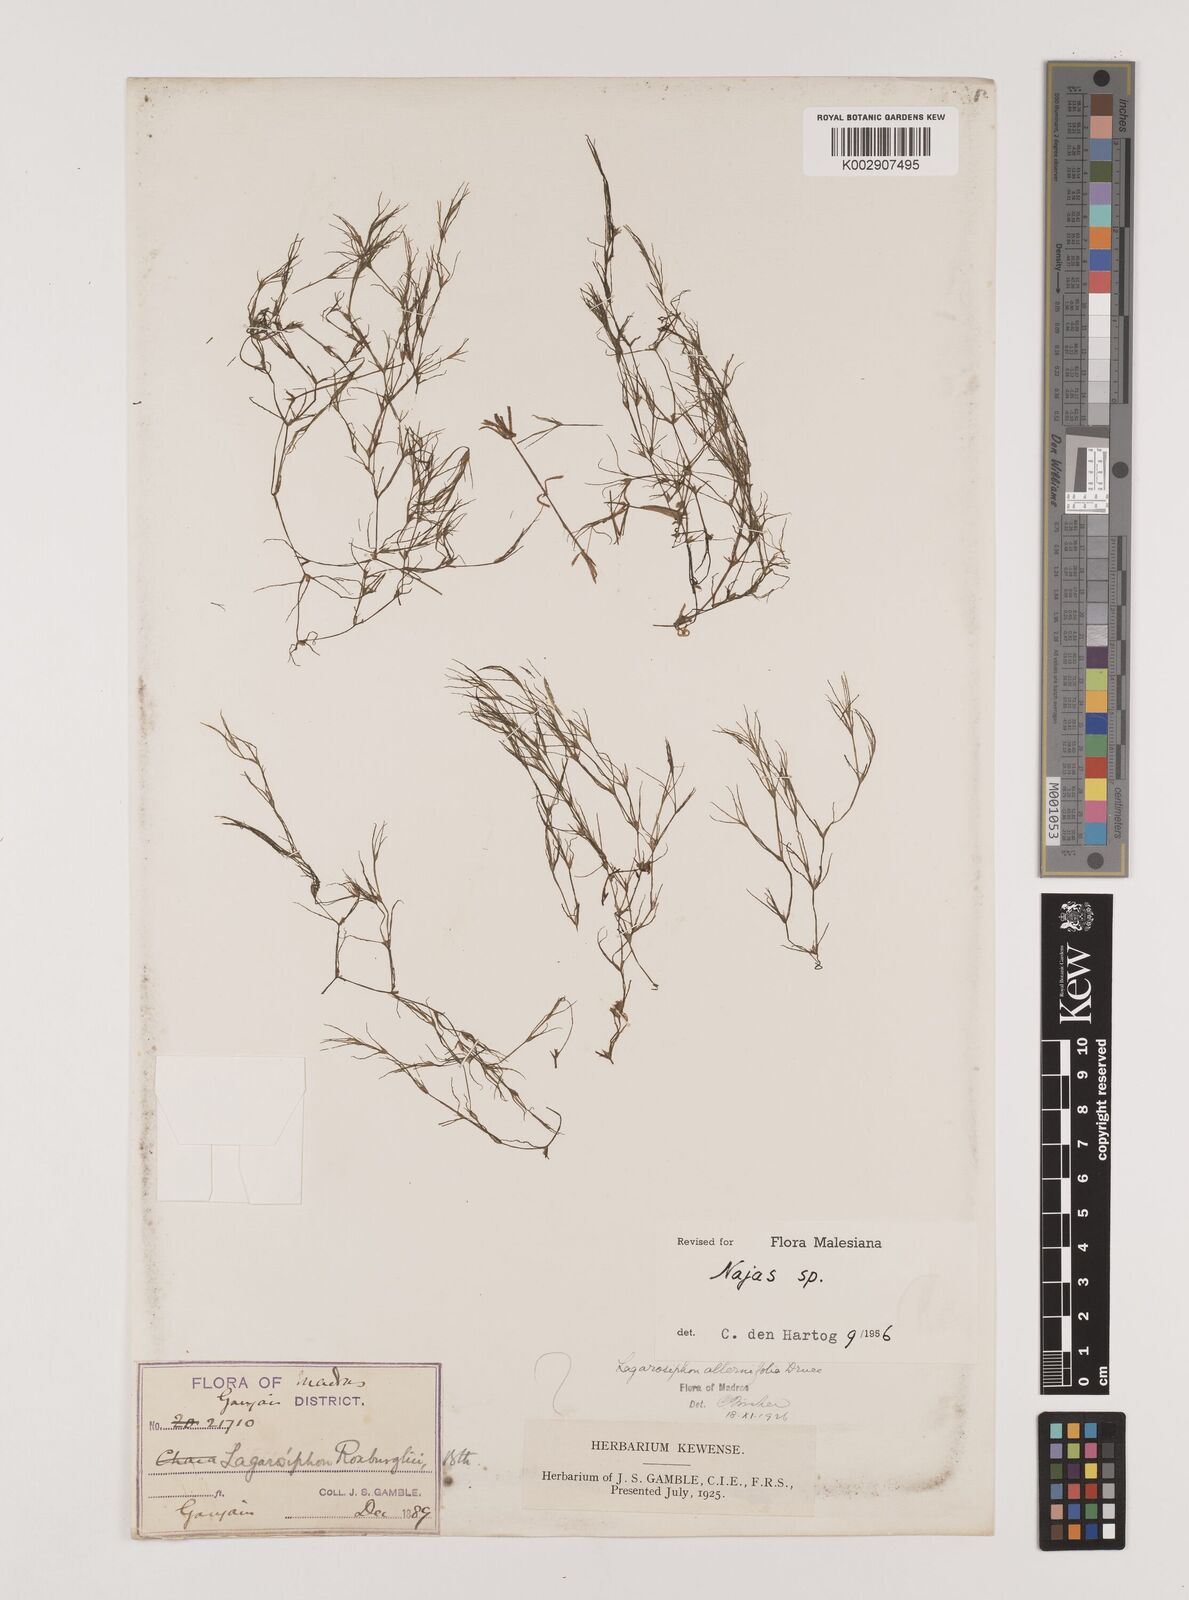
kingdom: Plantae
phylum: Tracheophyta
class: Liliopsida
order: Alismatales
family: Hydrocharitaceae
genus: Najas
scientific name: Najas
